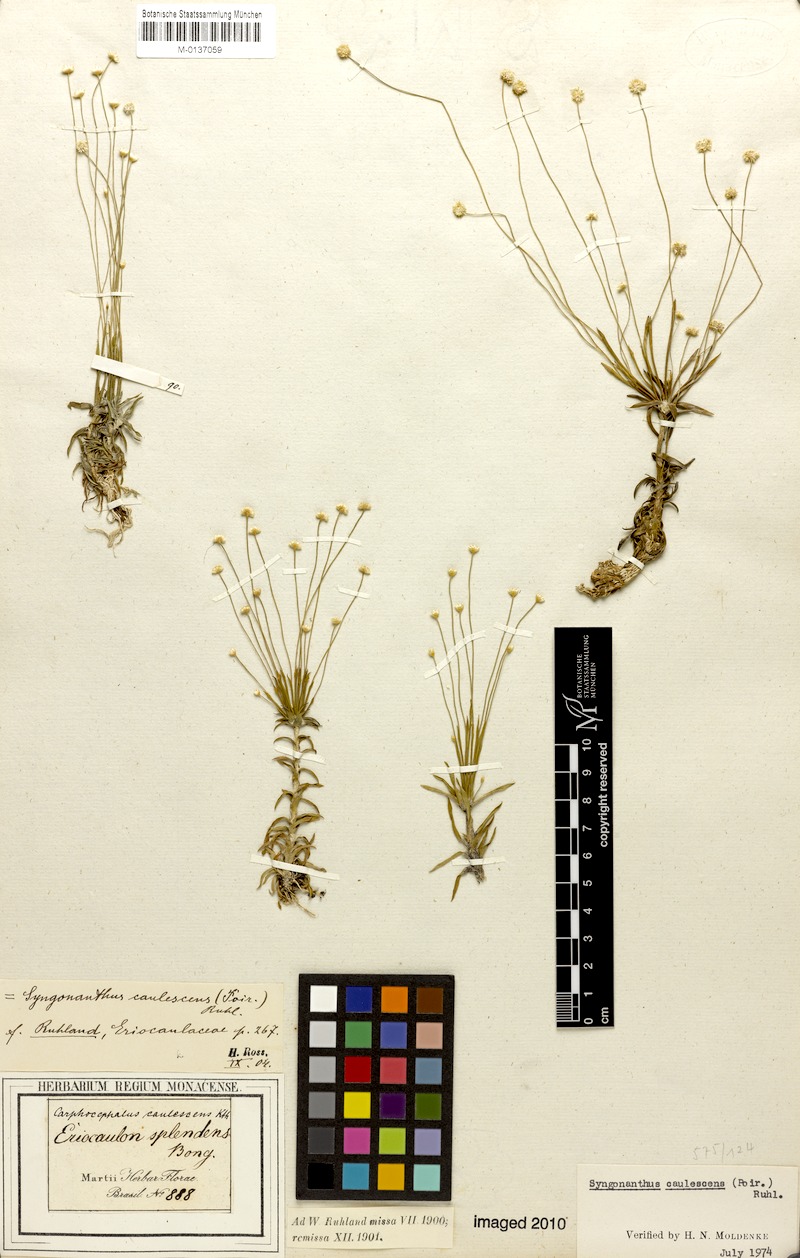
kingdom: Plantae
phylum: Tracheophyta
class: Liliopsida
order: Poales
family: Eriocaulaceae
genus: Syngonanthus
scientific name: Syngonanthus caulescens
